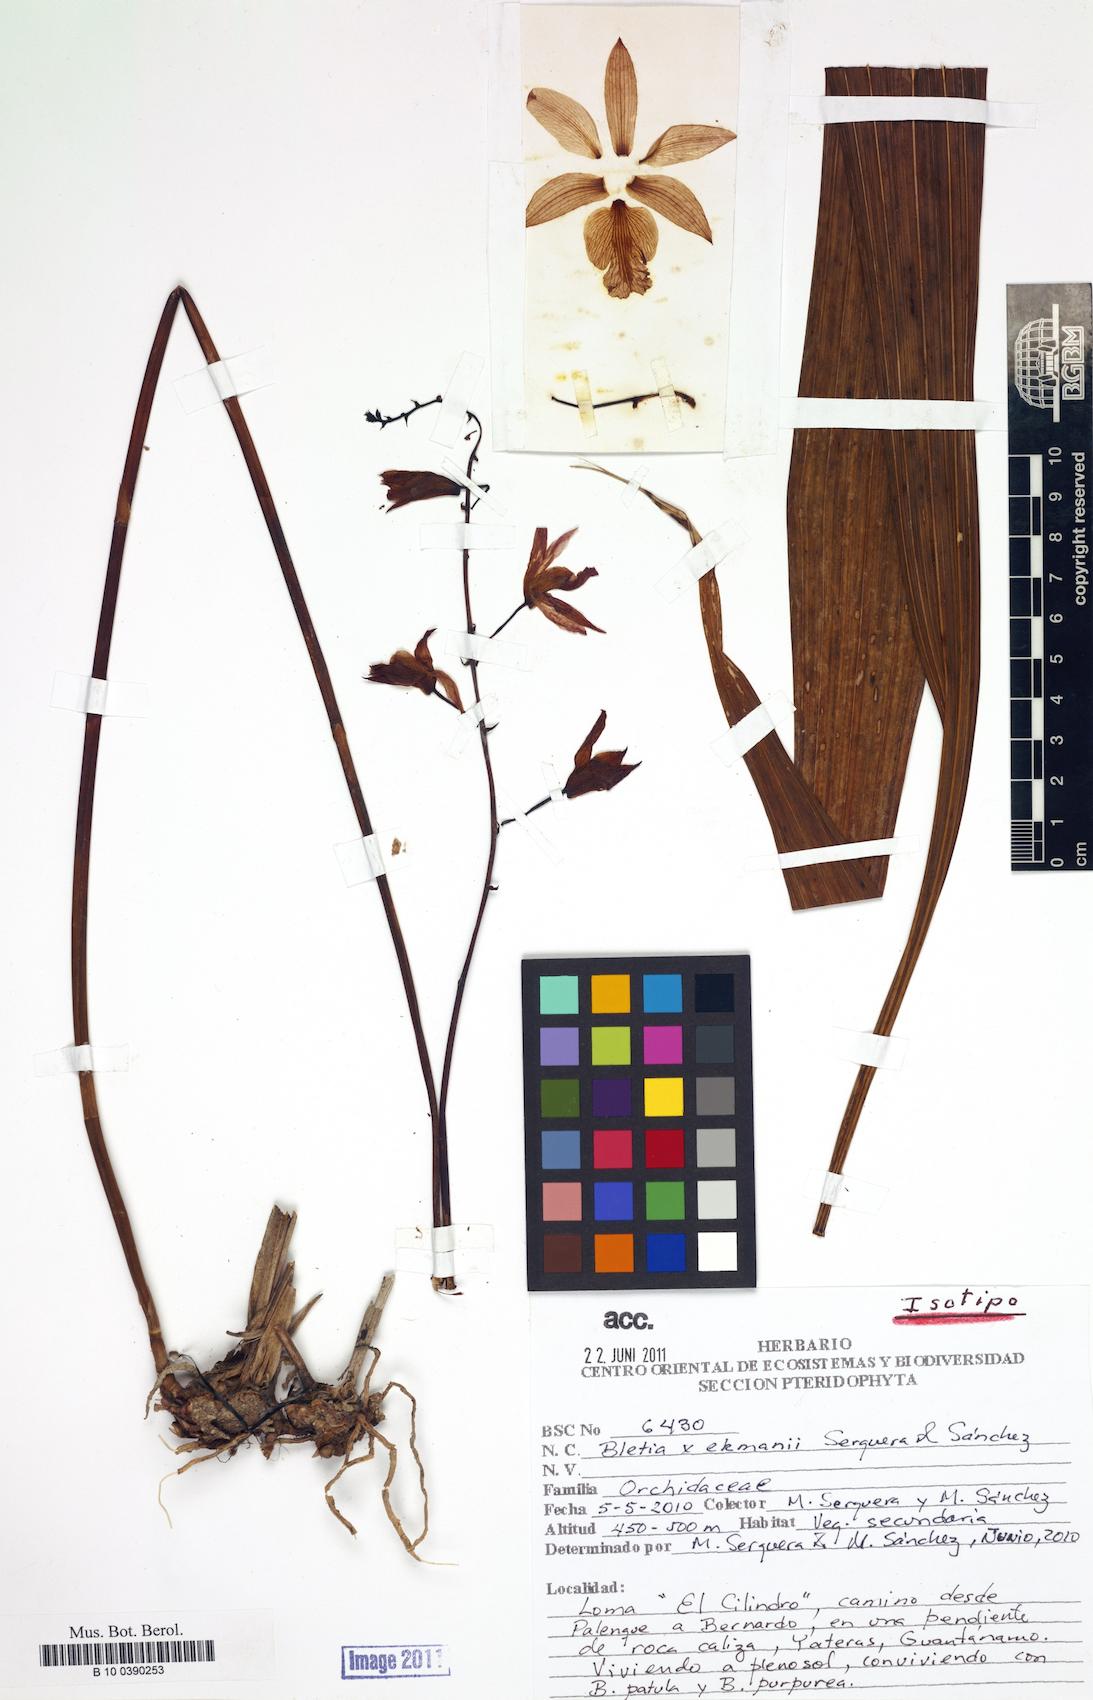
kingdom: Plantae
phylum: Tracheophyta
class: Liliopsida
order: Asparagales
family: Orchidaceae
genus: Bletia
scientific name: Bletia ekmanii
